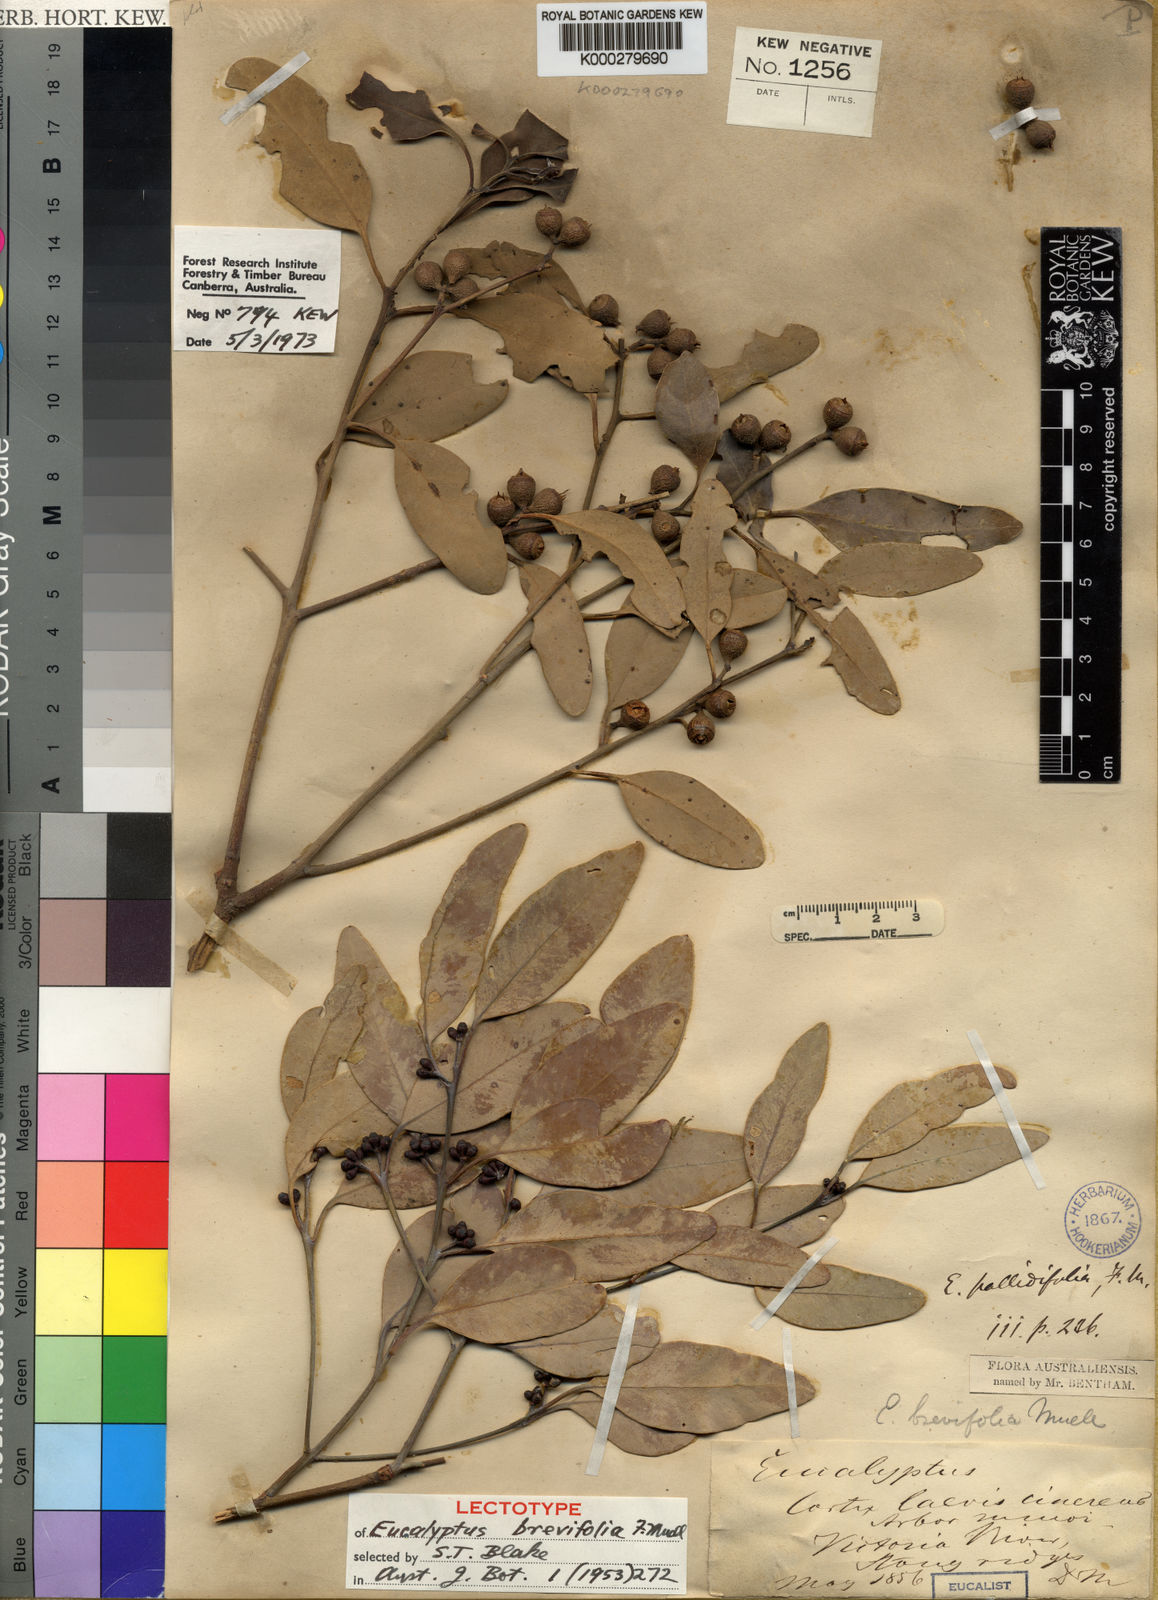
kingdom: Plantae
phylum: Tracheophyta
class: Magnoliopsida
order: Myrtales
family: Myrtaceae
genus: Eucalyptus
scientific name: Eucalyptus brevifolia
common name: Northern-white-gum
